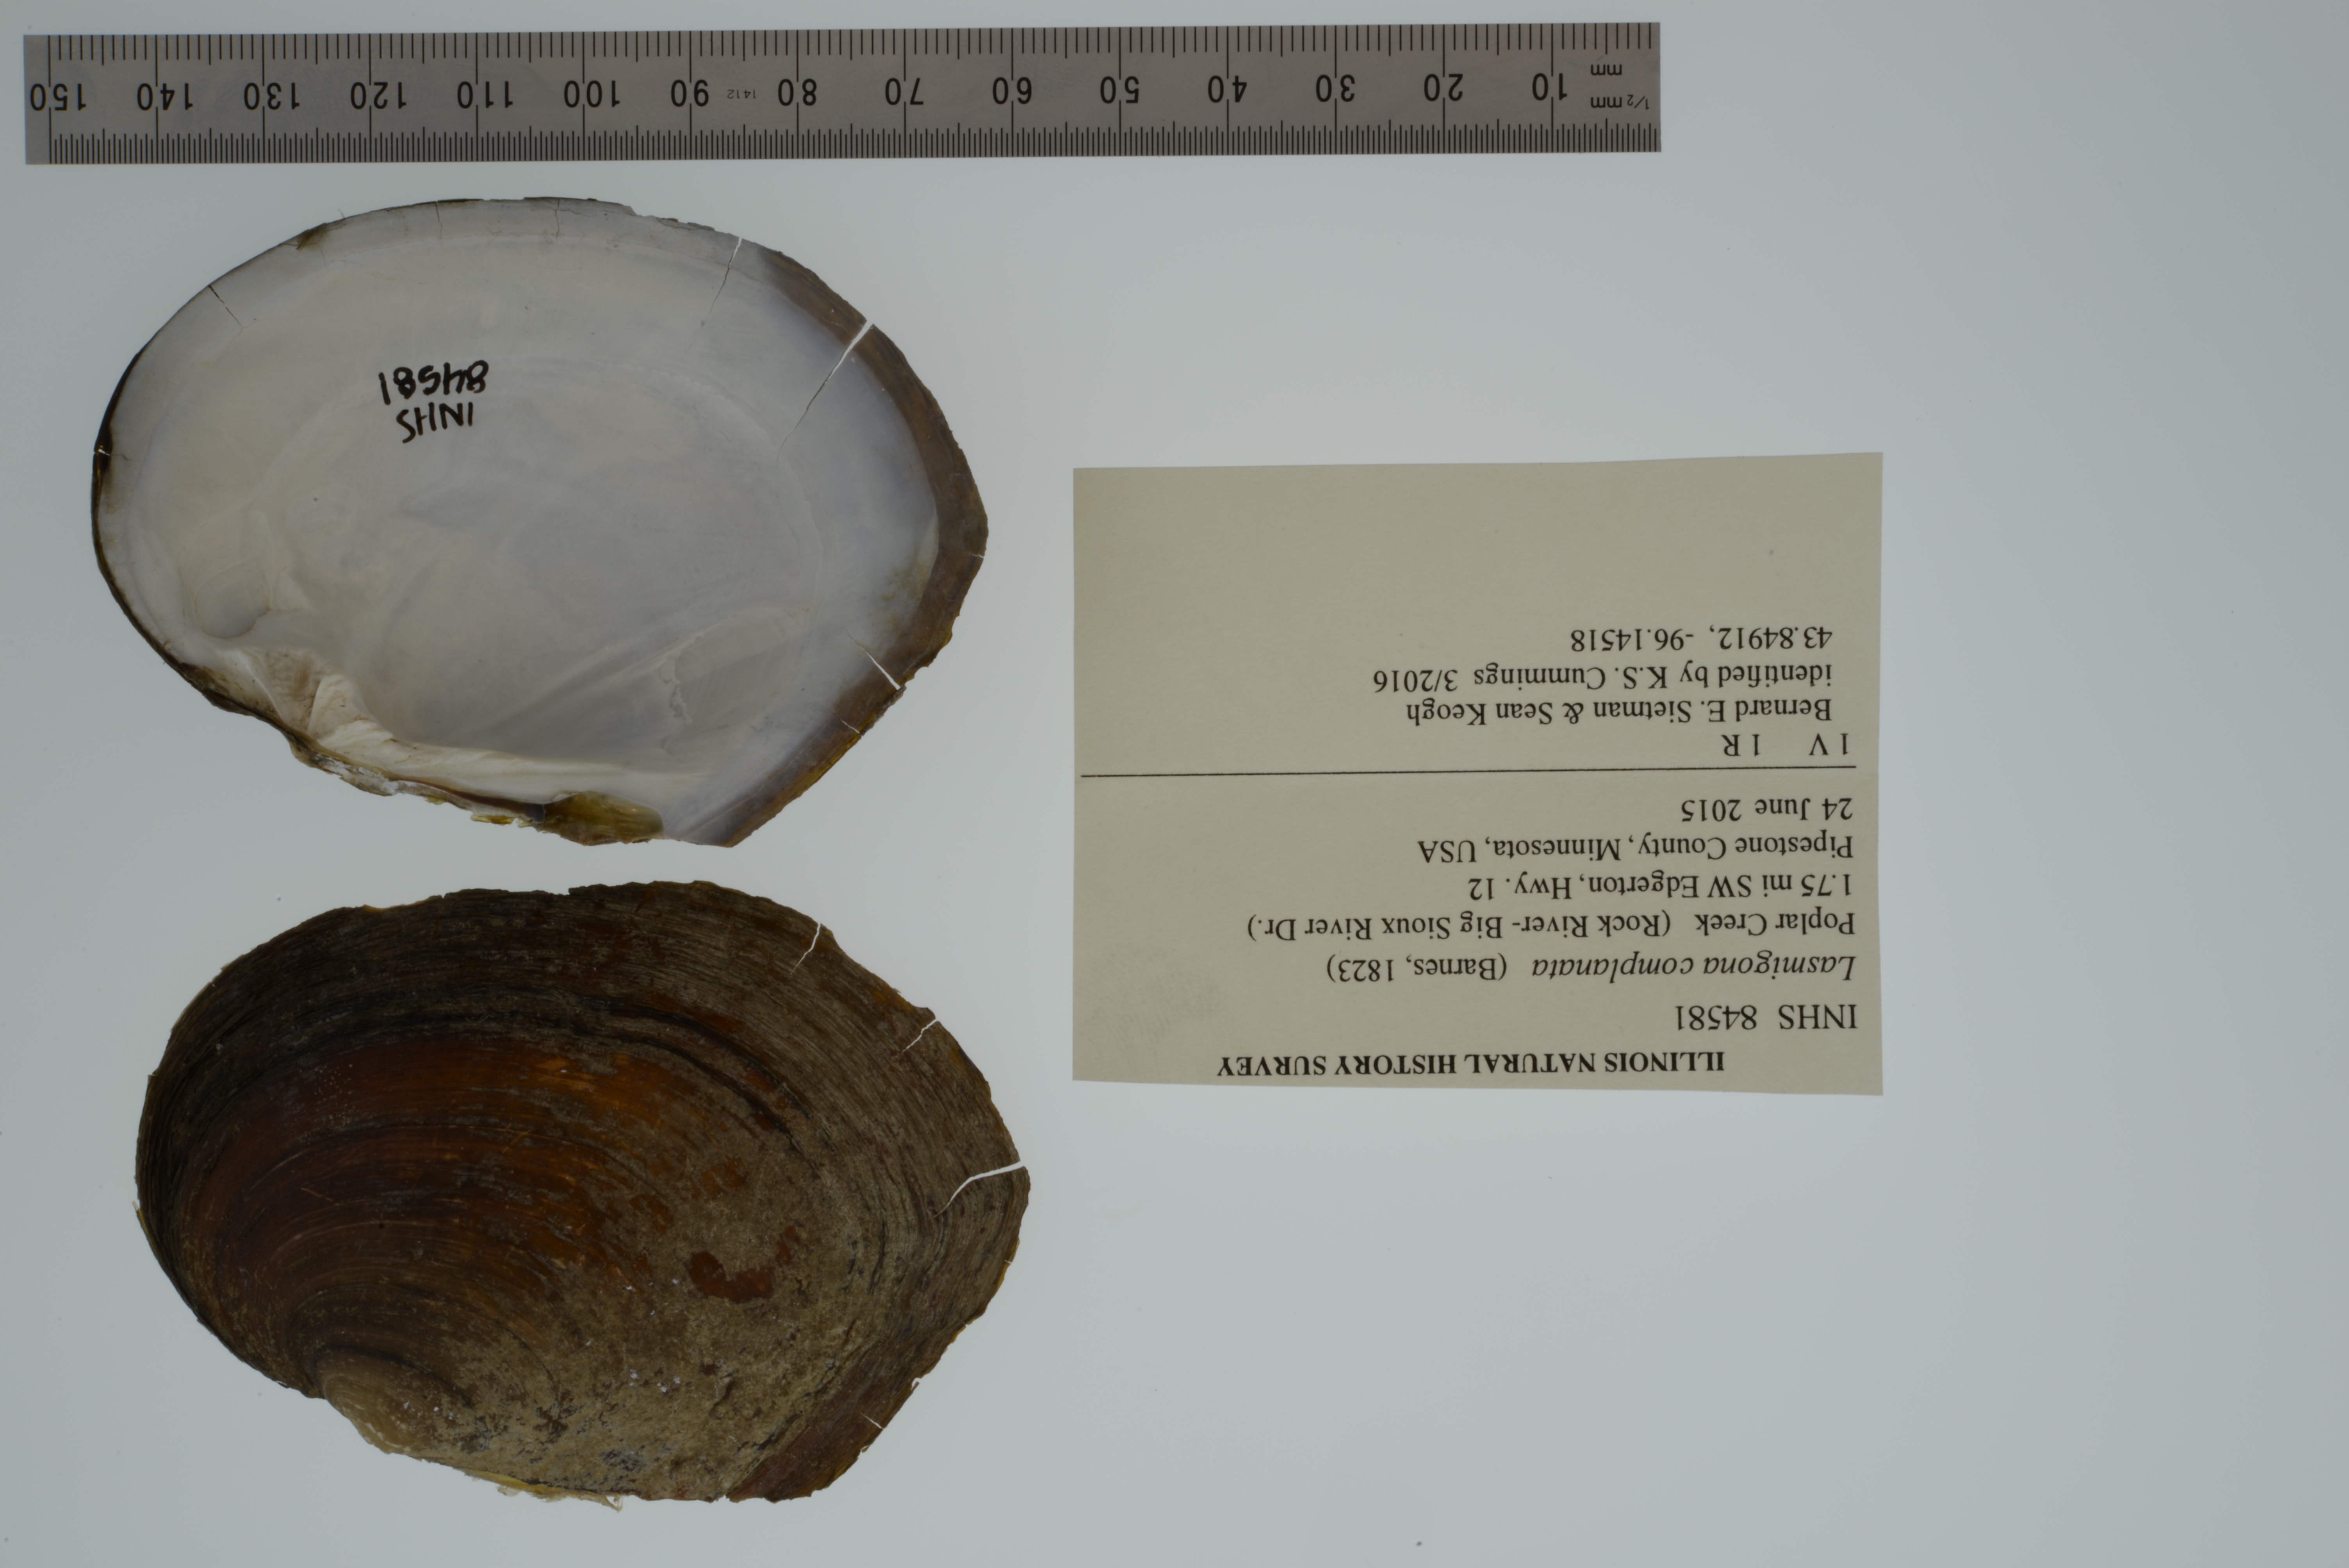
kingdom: Animalia
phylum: Mollusca
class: Bivalvia
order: Unionida
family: Unionidae
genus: Lasmigona
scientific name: Lasmigona complanata
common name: White heelsplitter
